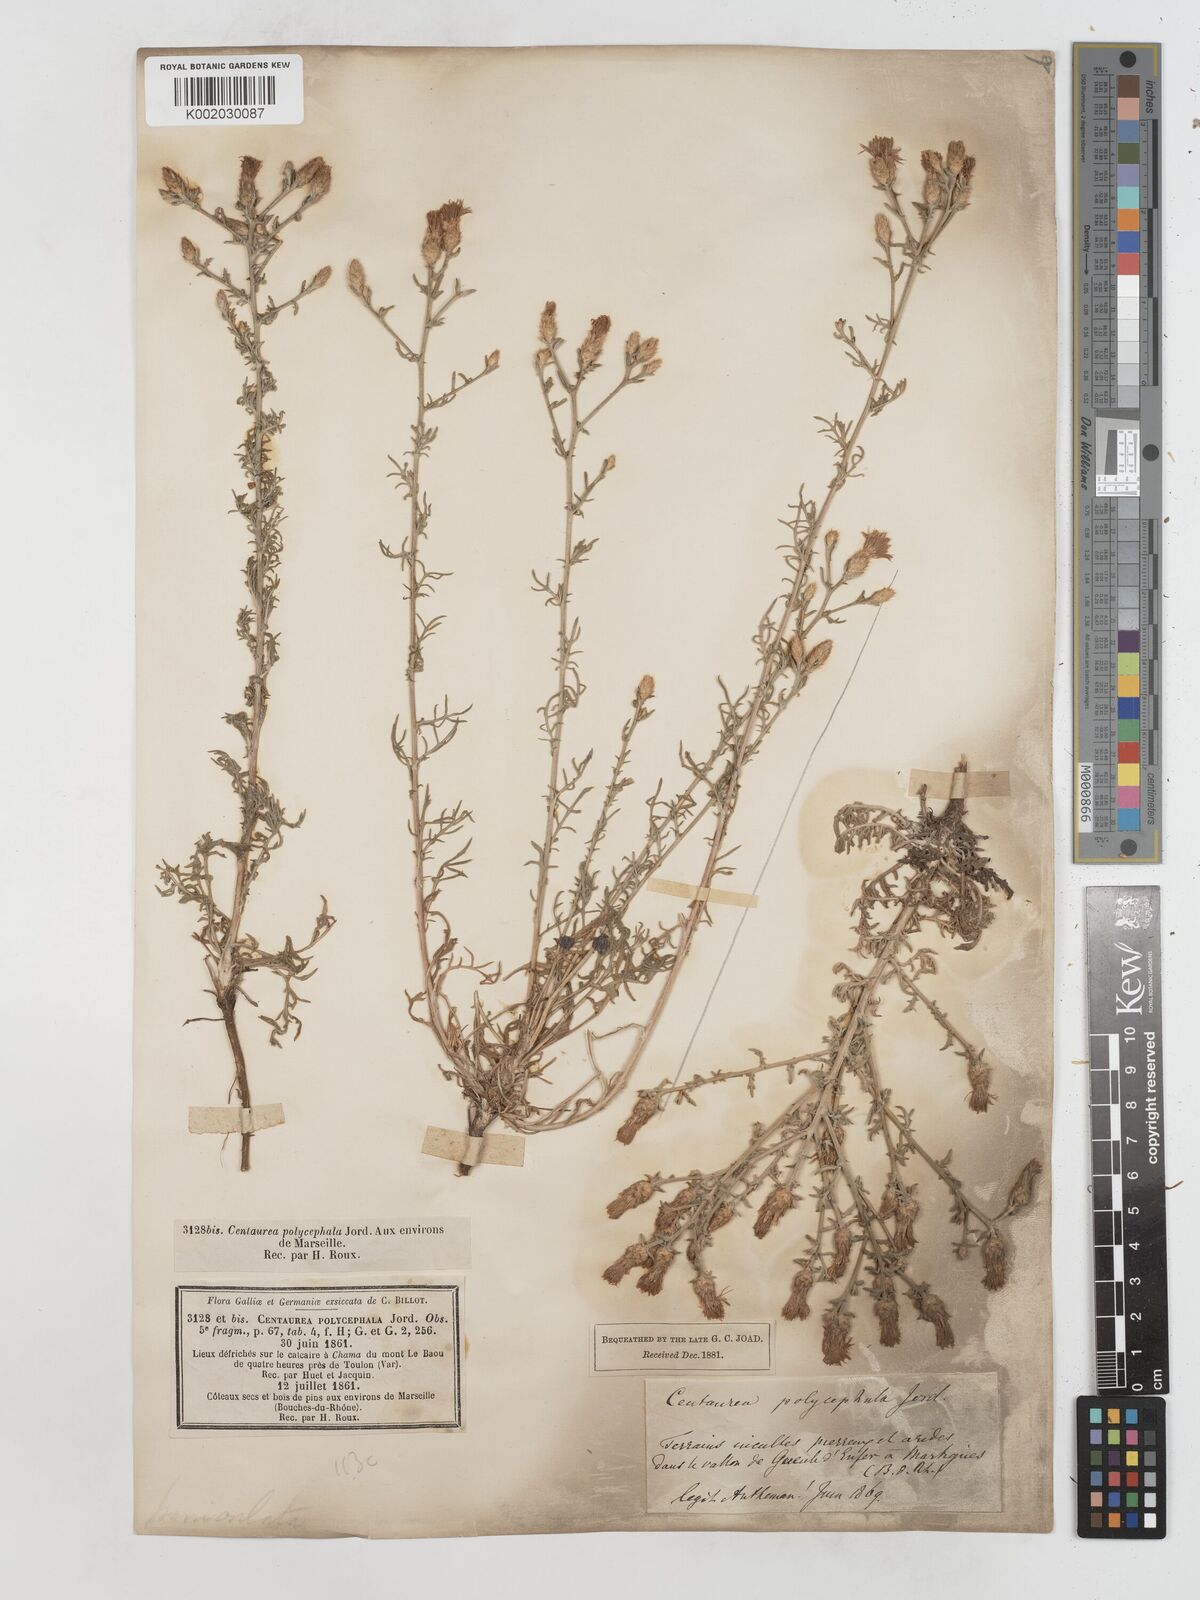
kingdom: Plantae
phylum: Tracheophyta
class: Magnoliopsida
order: Asterales
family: Asteraceae
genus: Centaurea
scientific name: Centaurea paniculata
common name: Jersey knapweed
